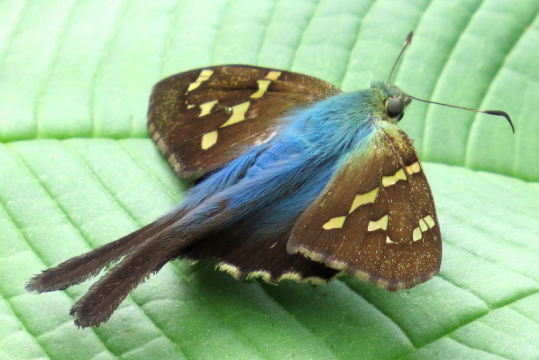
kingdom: Animalia
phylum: Arthropoda
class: Insecta
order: Lepidoptera
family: Hesperiidae
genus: Urbanus
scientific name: Urbanus esmeraldus
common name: Esmeralda Longtail
